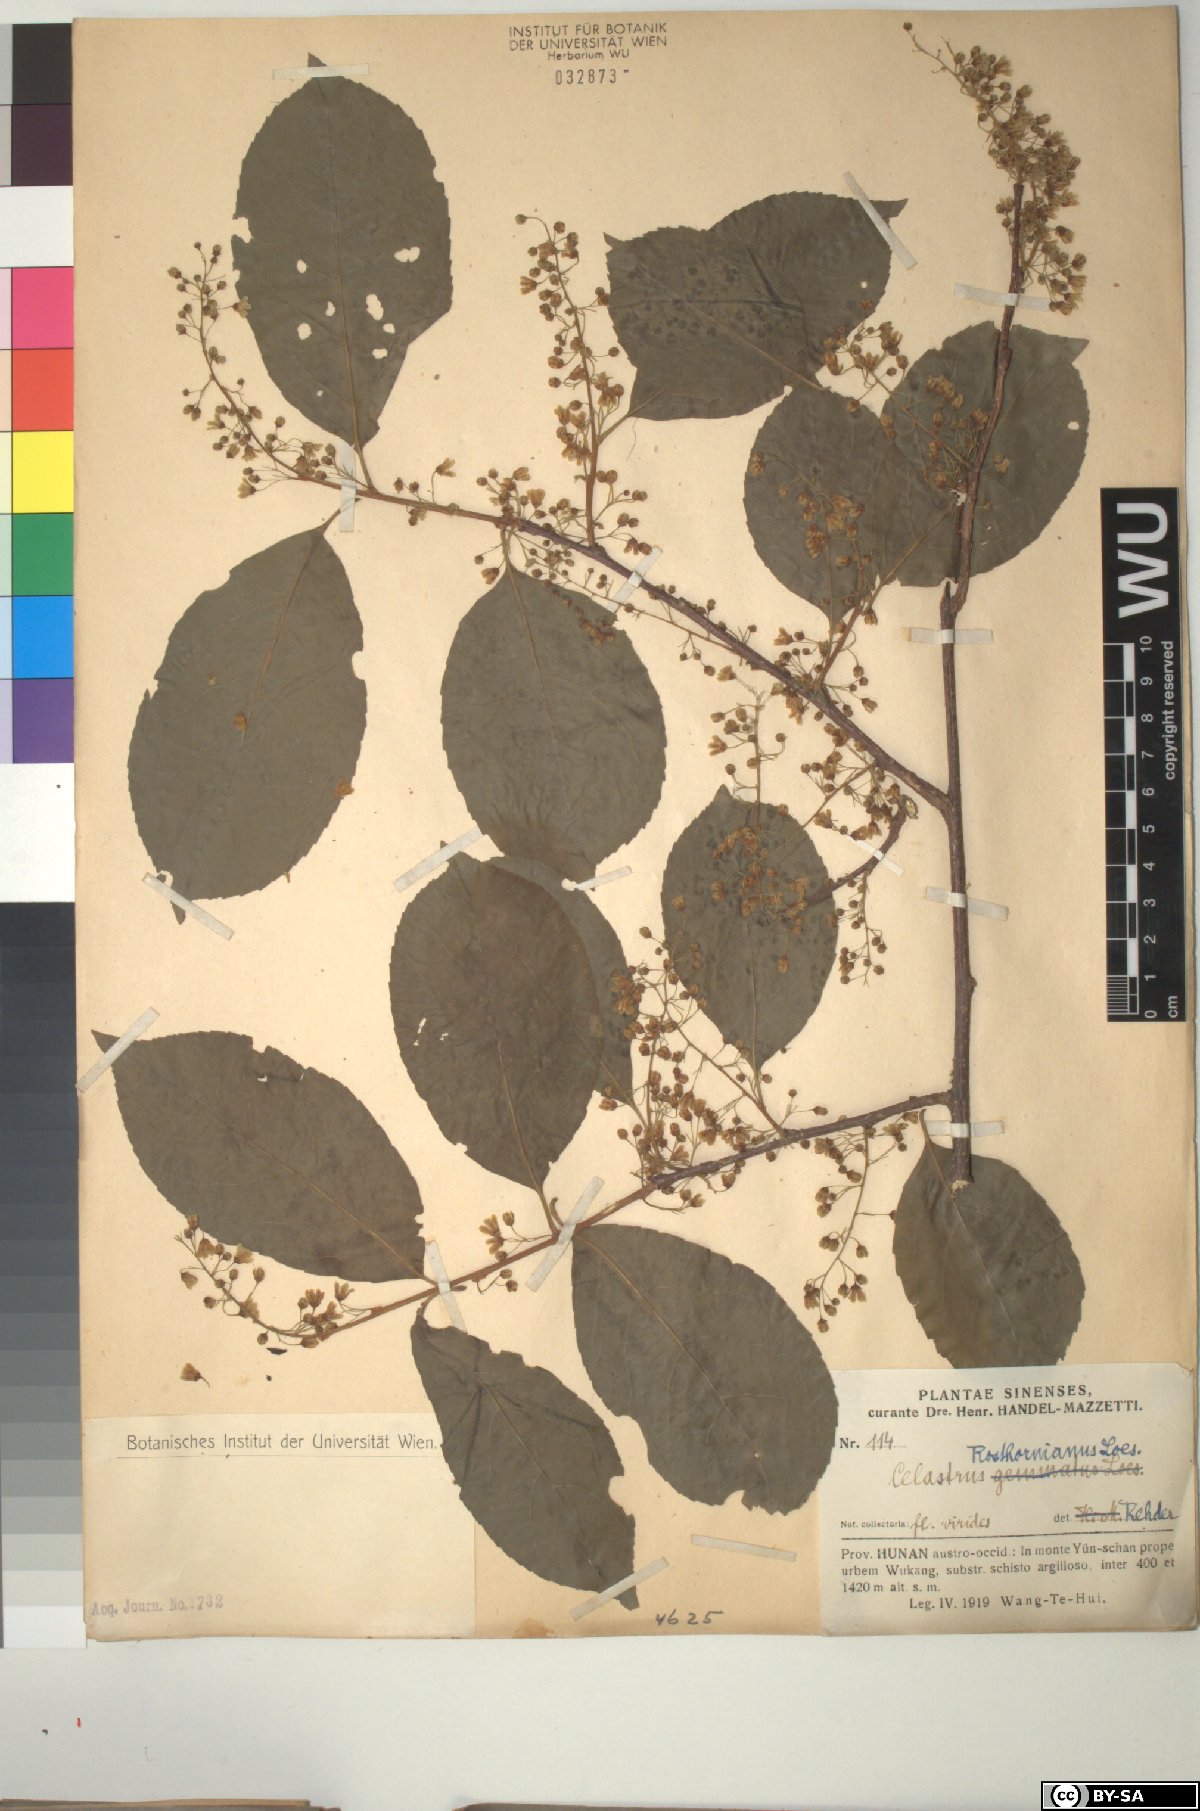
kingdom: Plantae
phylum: Tracheophyta
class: Magnoliopsida
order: Celastrales
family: Celastraceae
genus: Celastrus
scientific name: Celastrus rosthornianus
